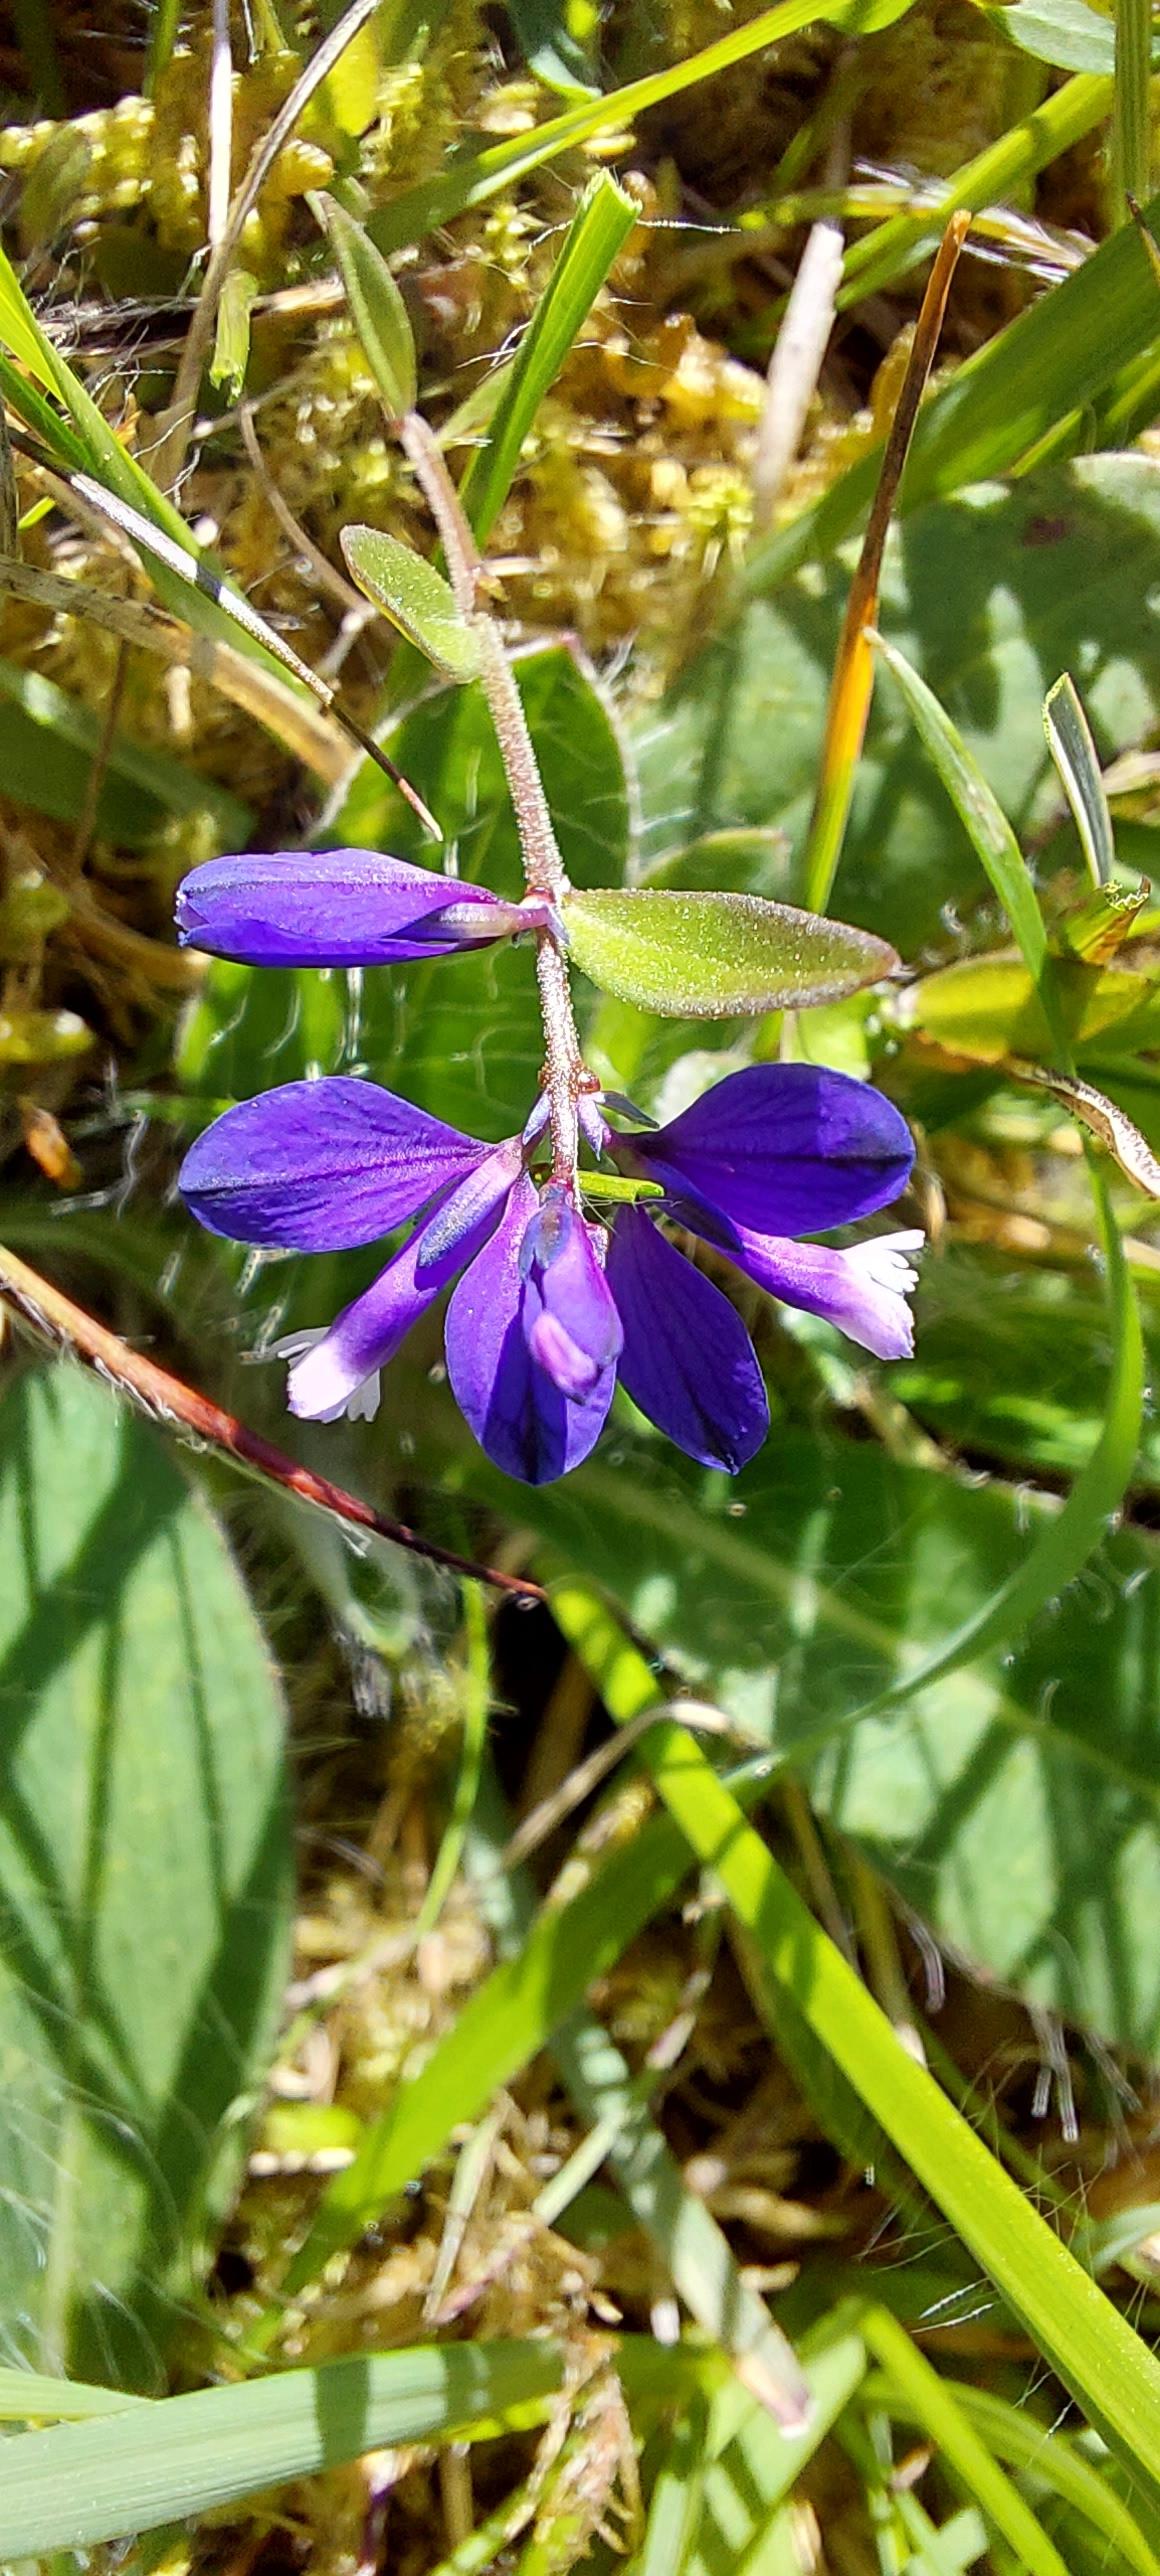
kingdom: Plantae
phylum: Tracheophyta
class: Magnoliopsida
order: Fabales
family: Polygalaceae
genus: Polygala
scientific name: Polygala vulgaris
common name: Almindelig mælkeurt
